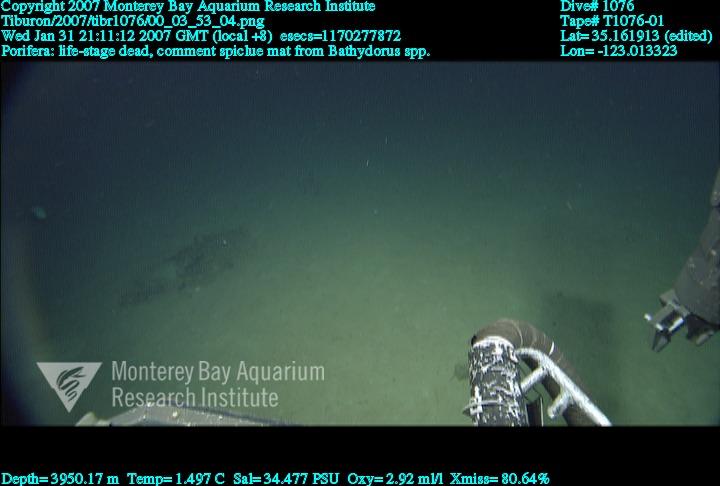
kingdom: Animalia
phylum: Porifera
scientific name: Porifera
